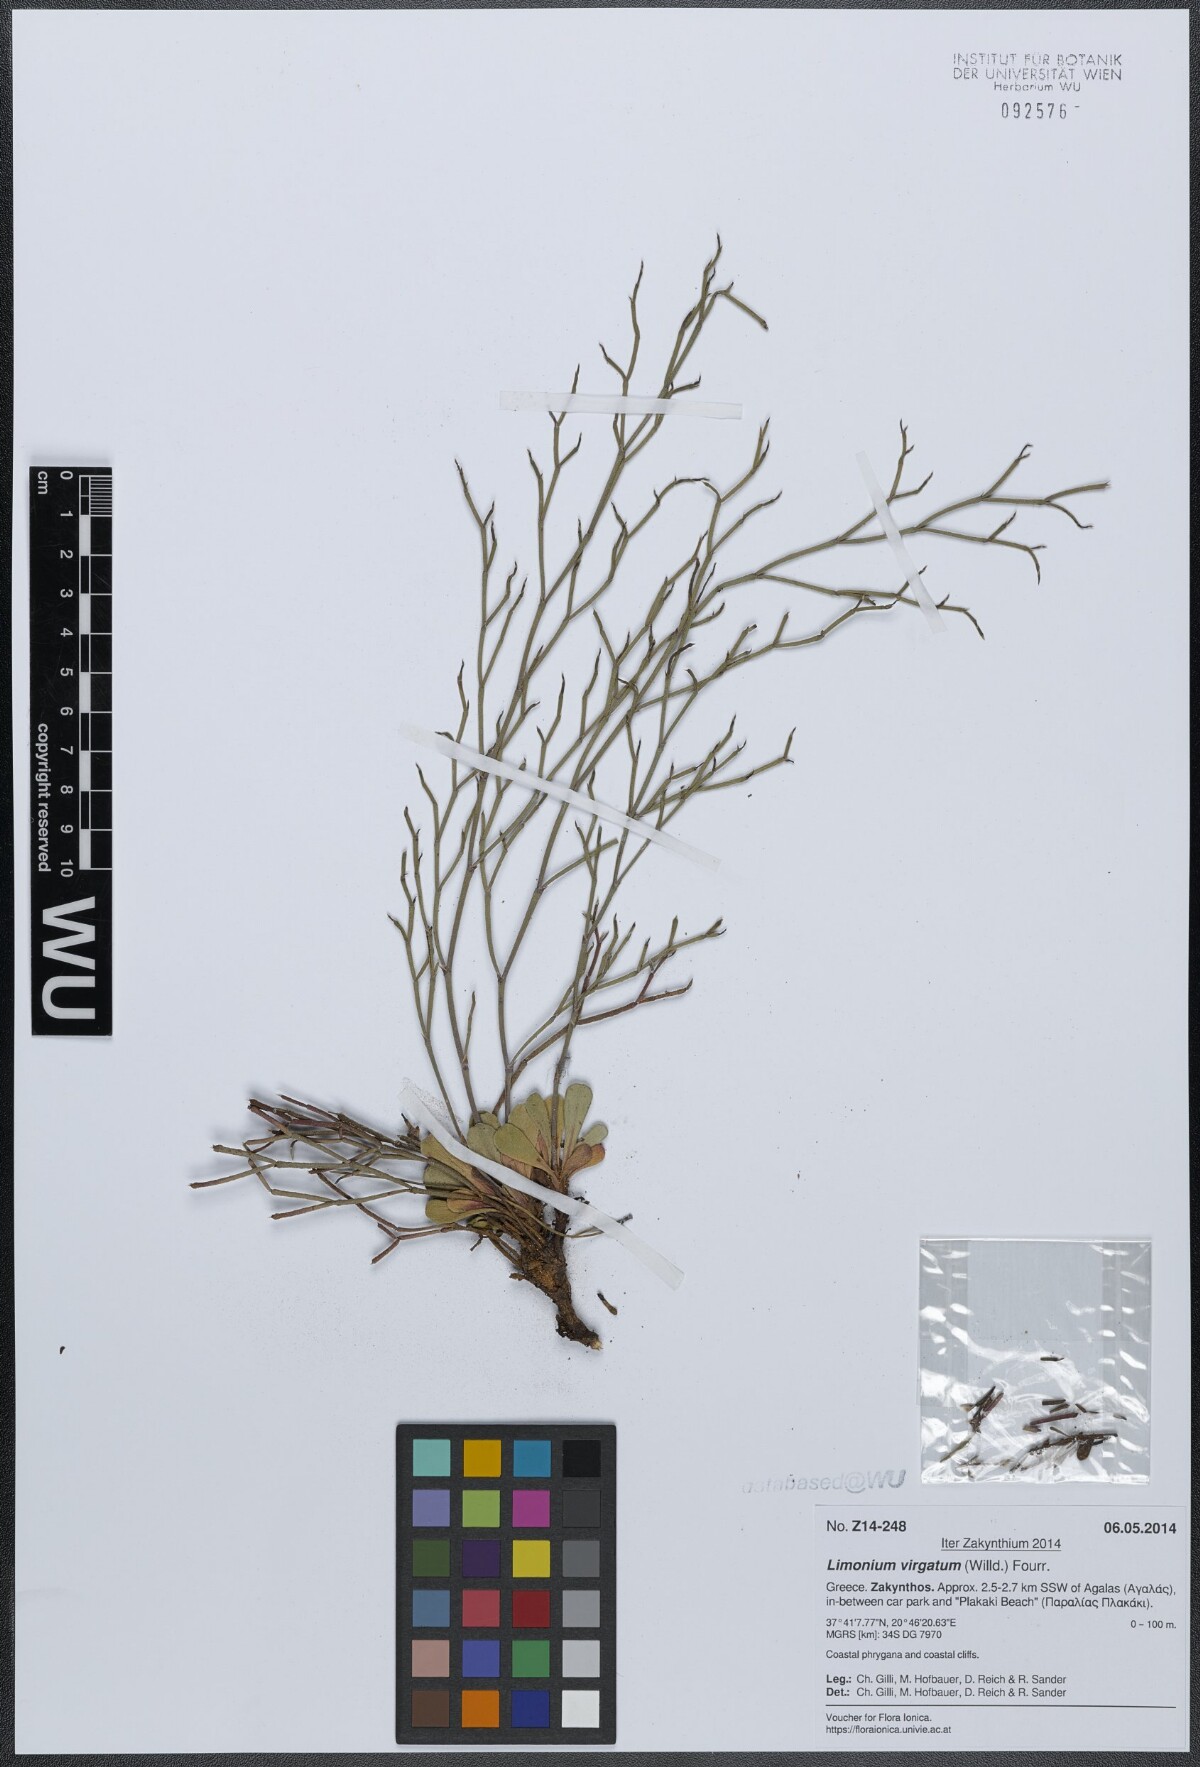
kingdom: Plantae
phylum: Tracheophyta
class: Magnoliopsida
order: Caryophyllales
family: Plumbaginaceae
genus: Limonium
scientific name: Limonium virgatum
